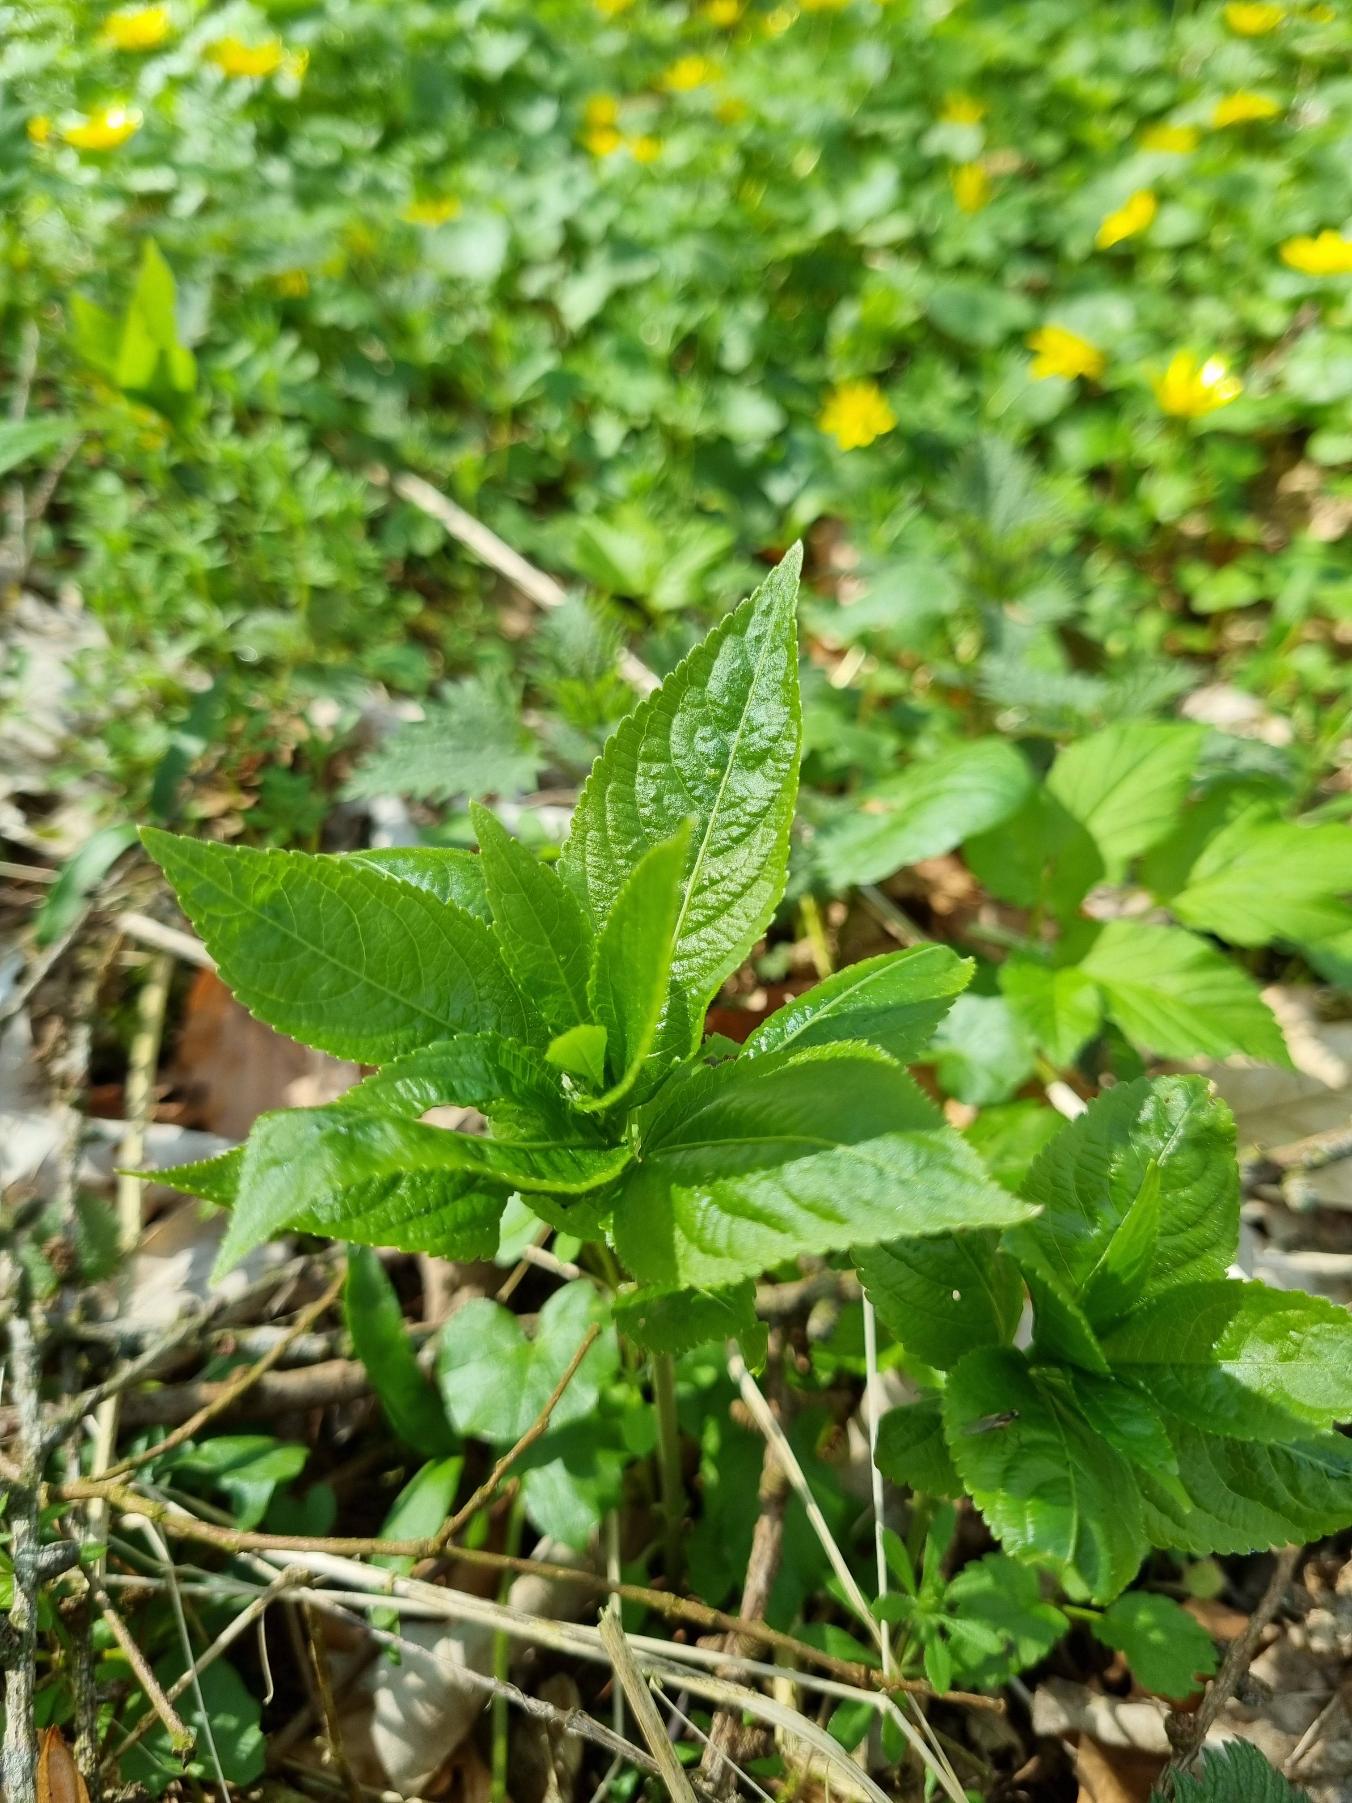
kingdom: Plantae
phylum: Tracheophyta
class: Magnoliopsida
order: Malpighiales
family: Euphorbiaceae
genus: Mercurialis
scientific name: Mercurialis perennis
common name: Almindelig bingelurt
